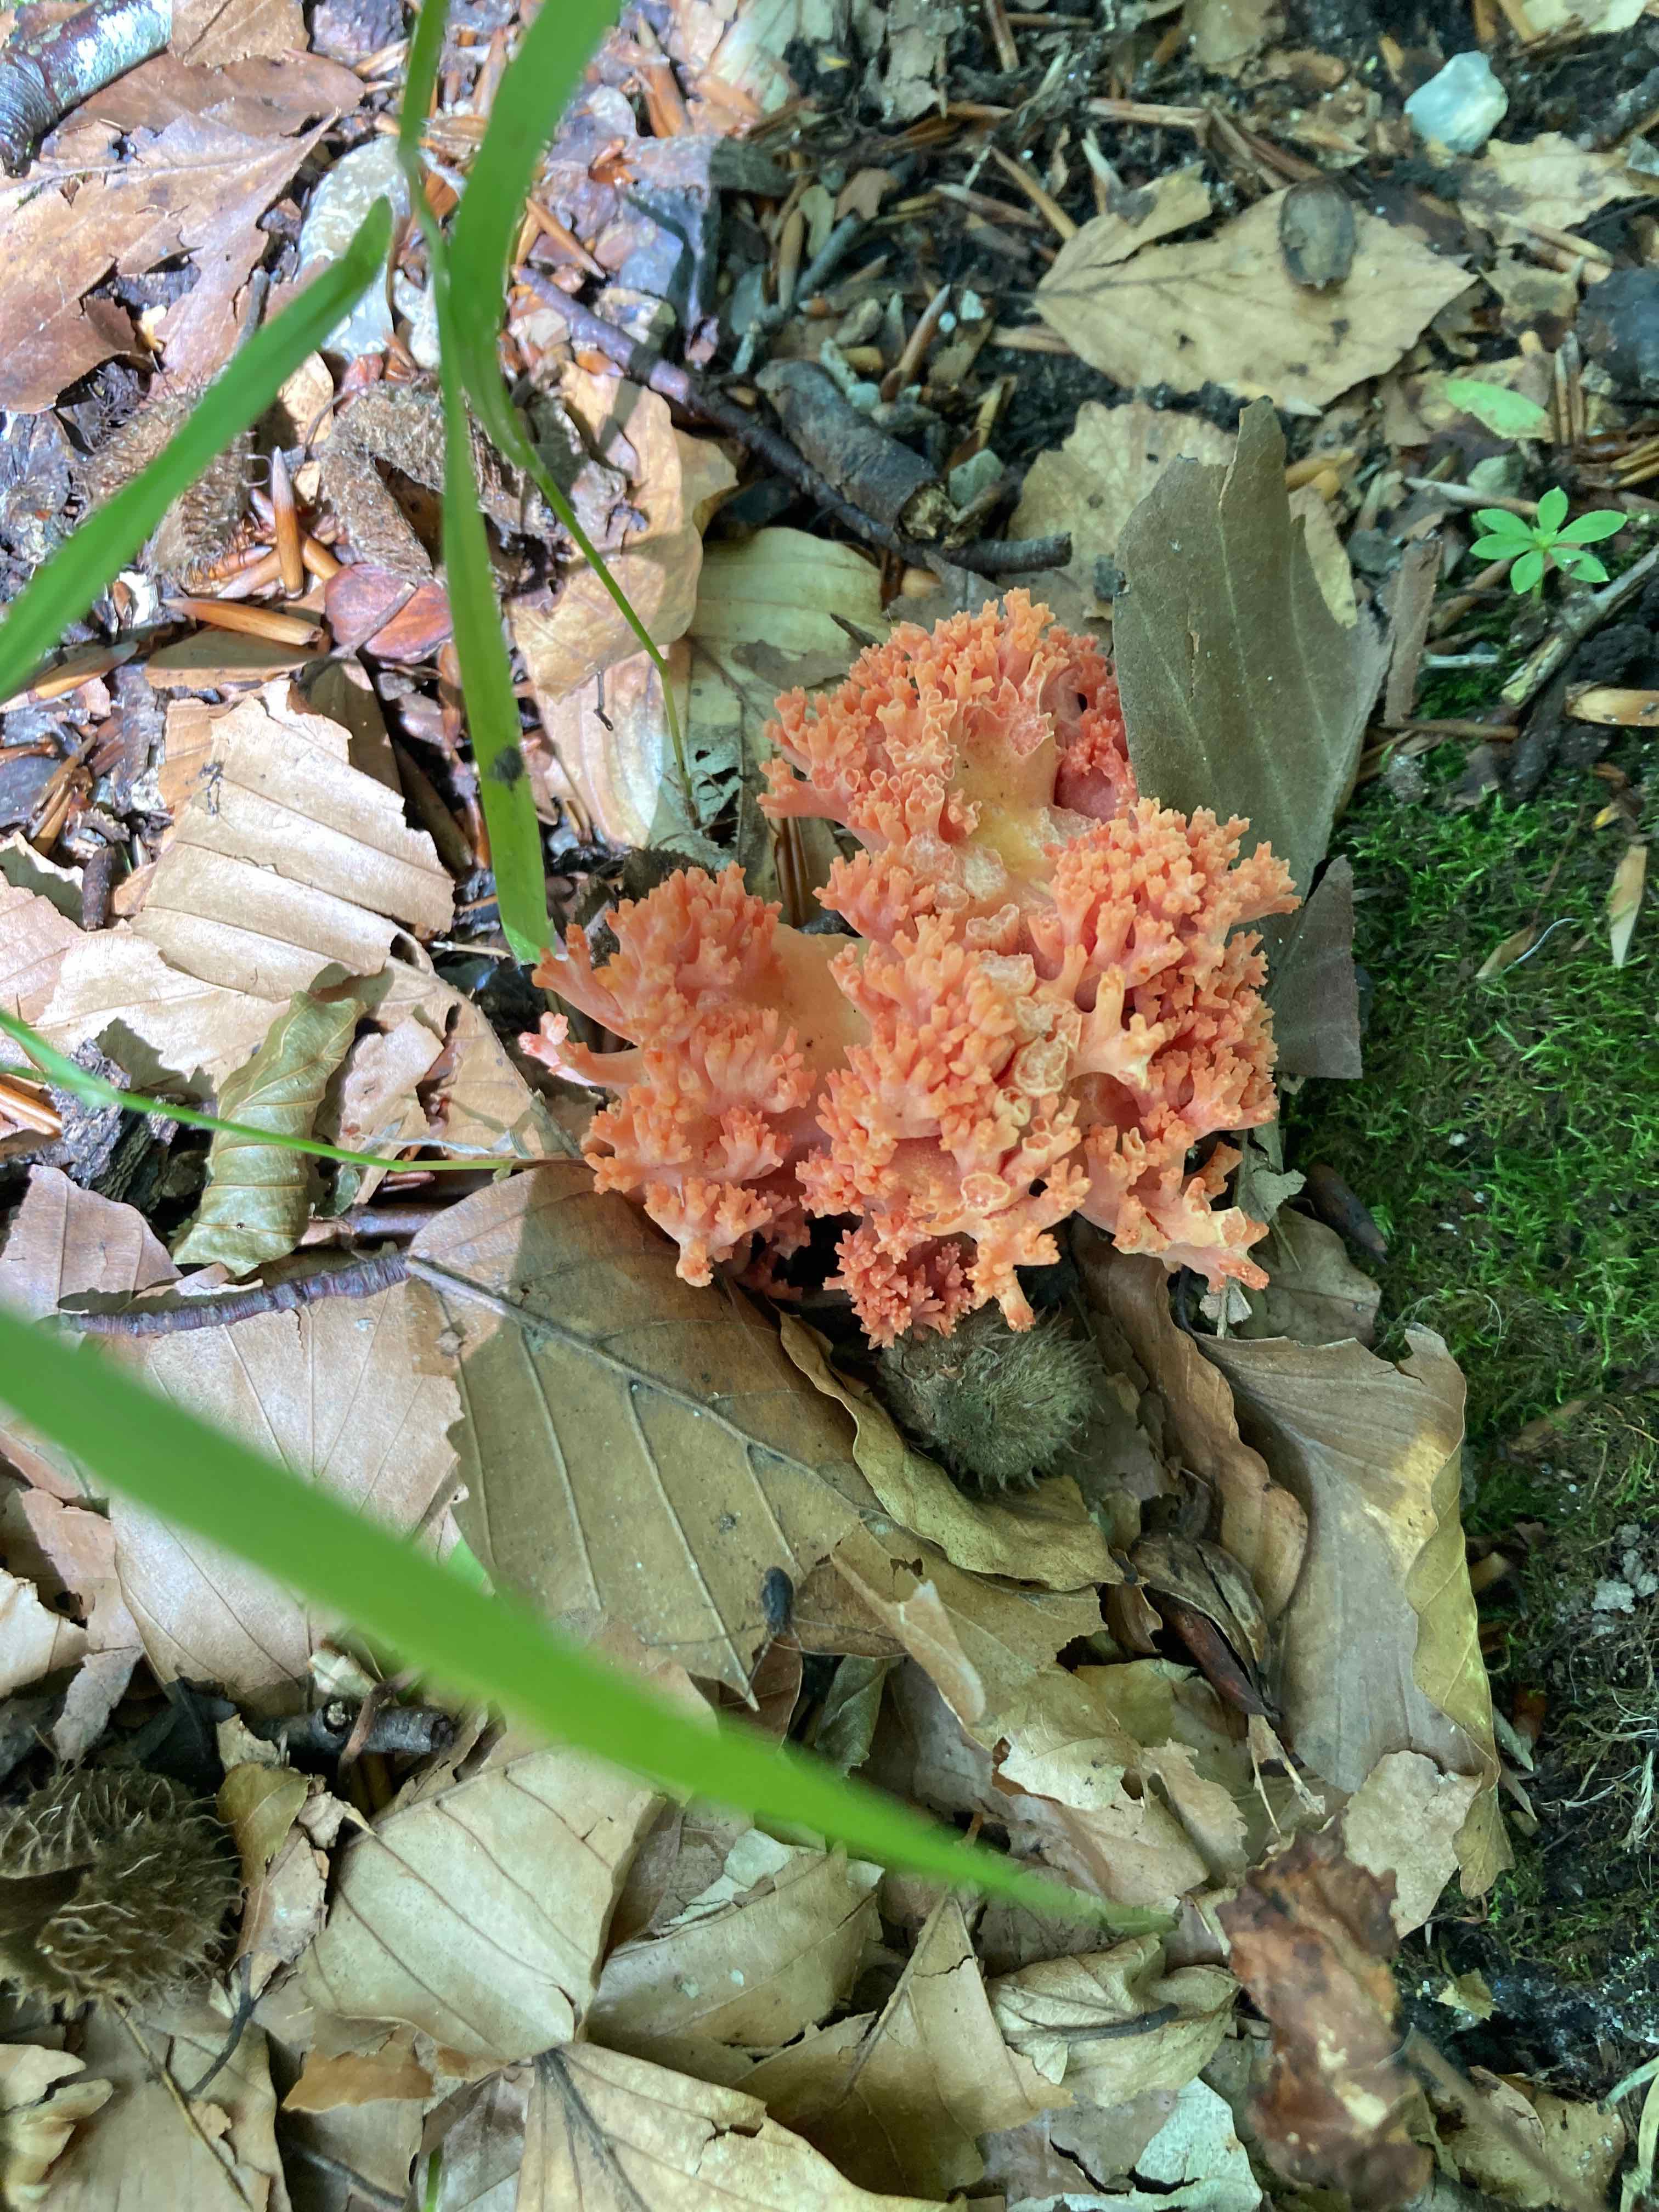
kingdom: Fungi
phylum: Basidiomycota
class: Agaricomycetes
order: Gomphales
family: Gomphaceae
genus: Ramaria
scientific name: Ramaria fagetorum
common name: abrikos-koralsvamp
